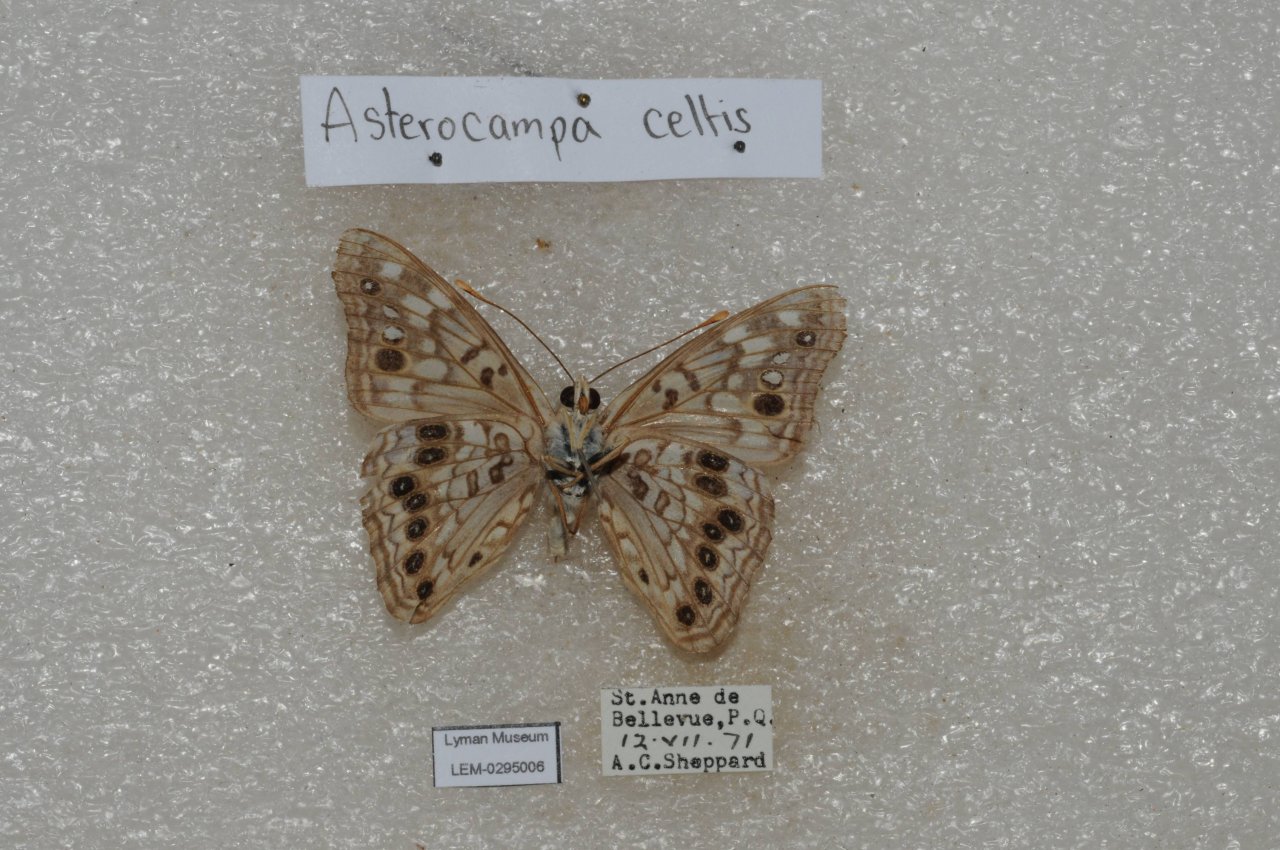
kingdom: Animalia
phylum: Arthropoda
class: Insecta
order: Lepidoptera
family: Nymphalidae
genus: Asterocampa
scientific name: Asterocampa celtis
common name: Hackberry Emperor
